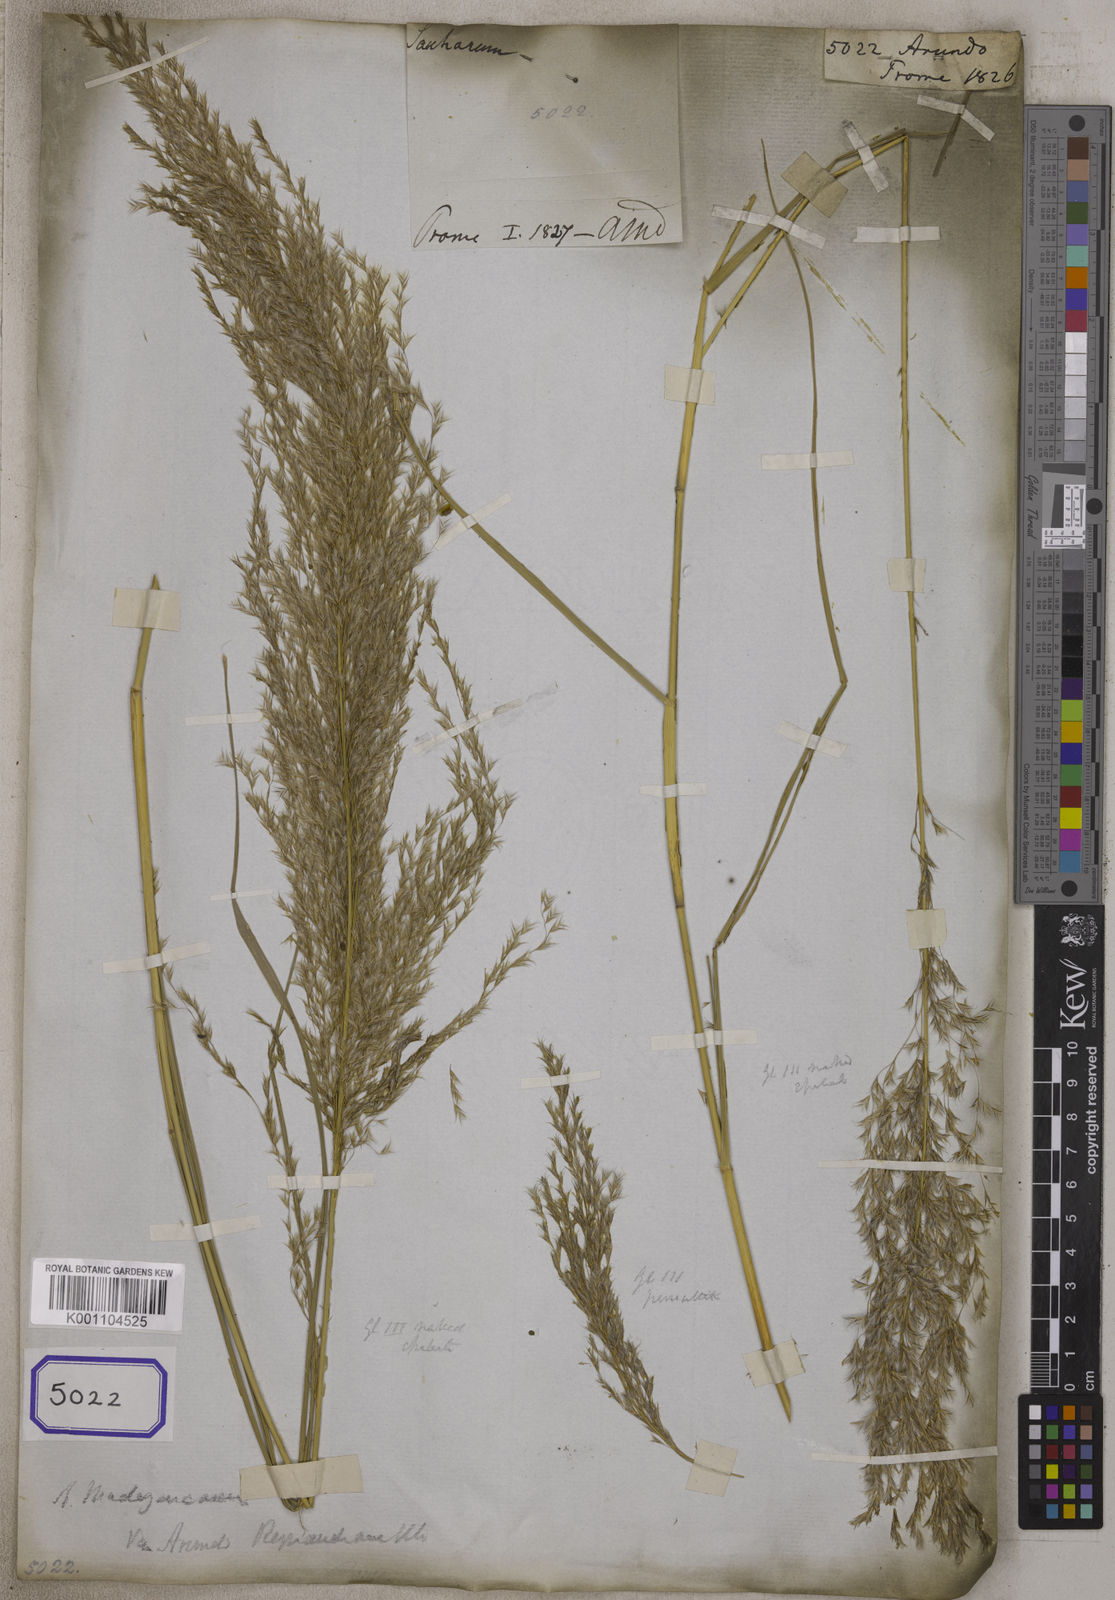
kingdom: Plantae
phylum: Tracheophyta
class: Liliopsida
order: Poales
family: Poaceae
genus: Arundo
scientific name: Arundo
